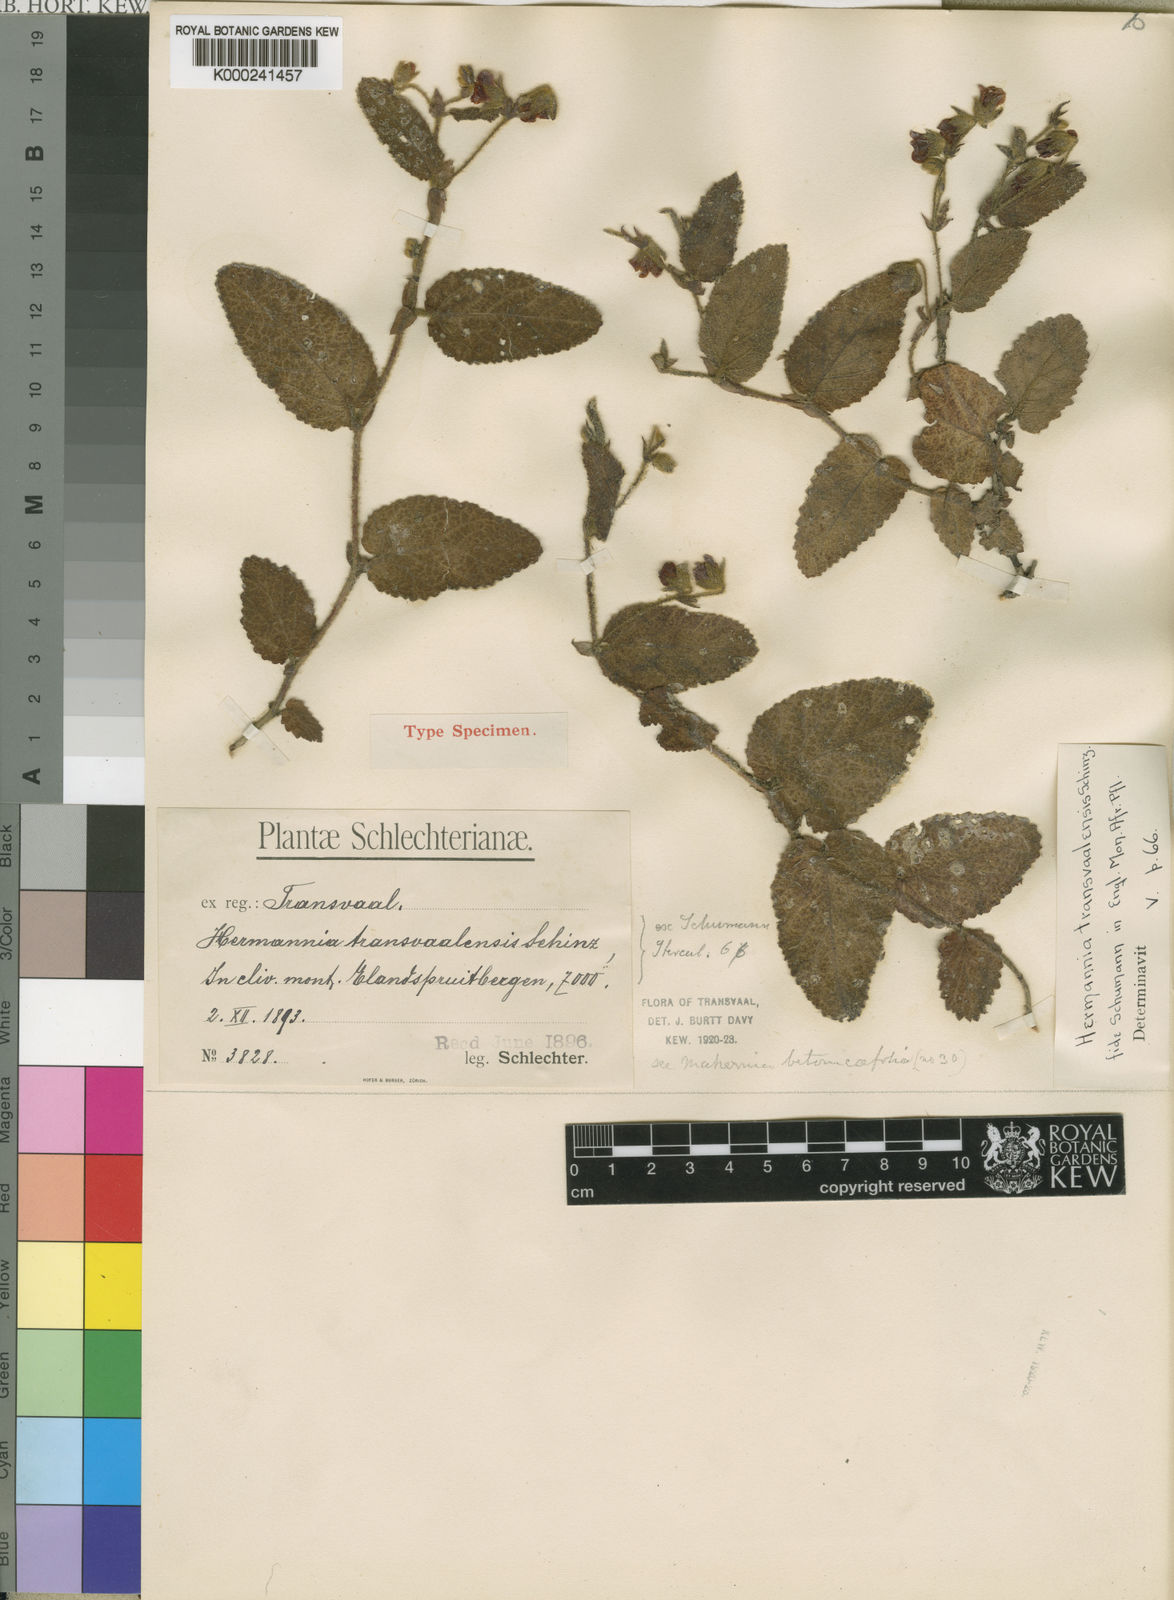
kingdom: Plantae
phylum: Tracheophyta
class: Magnoliopsida
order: Malvales
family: Malvaceae
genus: Hermannia
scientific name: Hermannia transvaalensis
